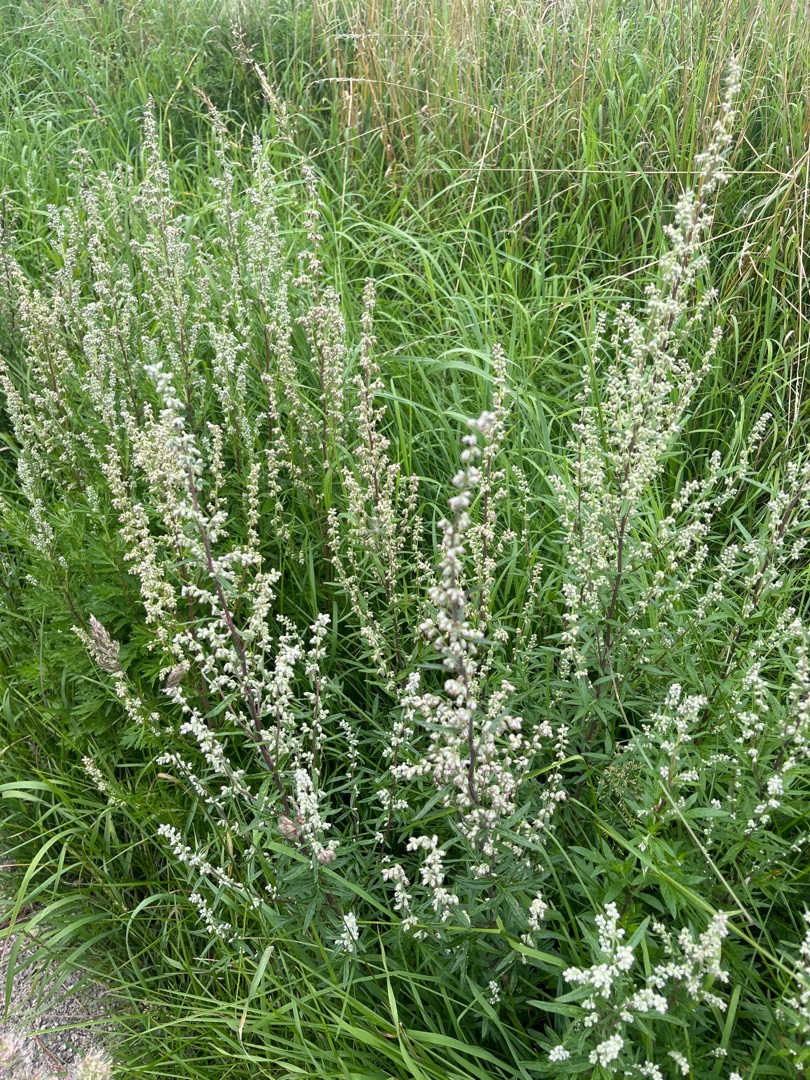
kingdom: Plantae
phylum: Tracheophyta
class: Magnoliopsida
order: Asterales
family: Asteraceae
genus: Artemisia
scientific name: Artemisia vulgaris
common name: Grå-bynke
